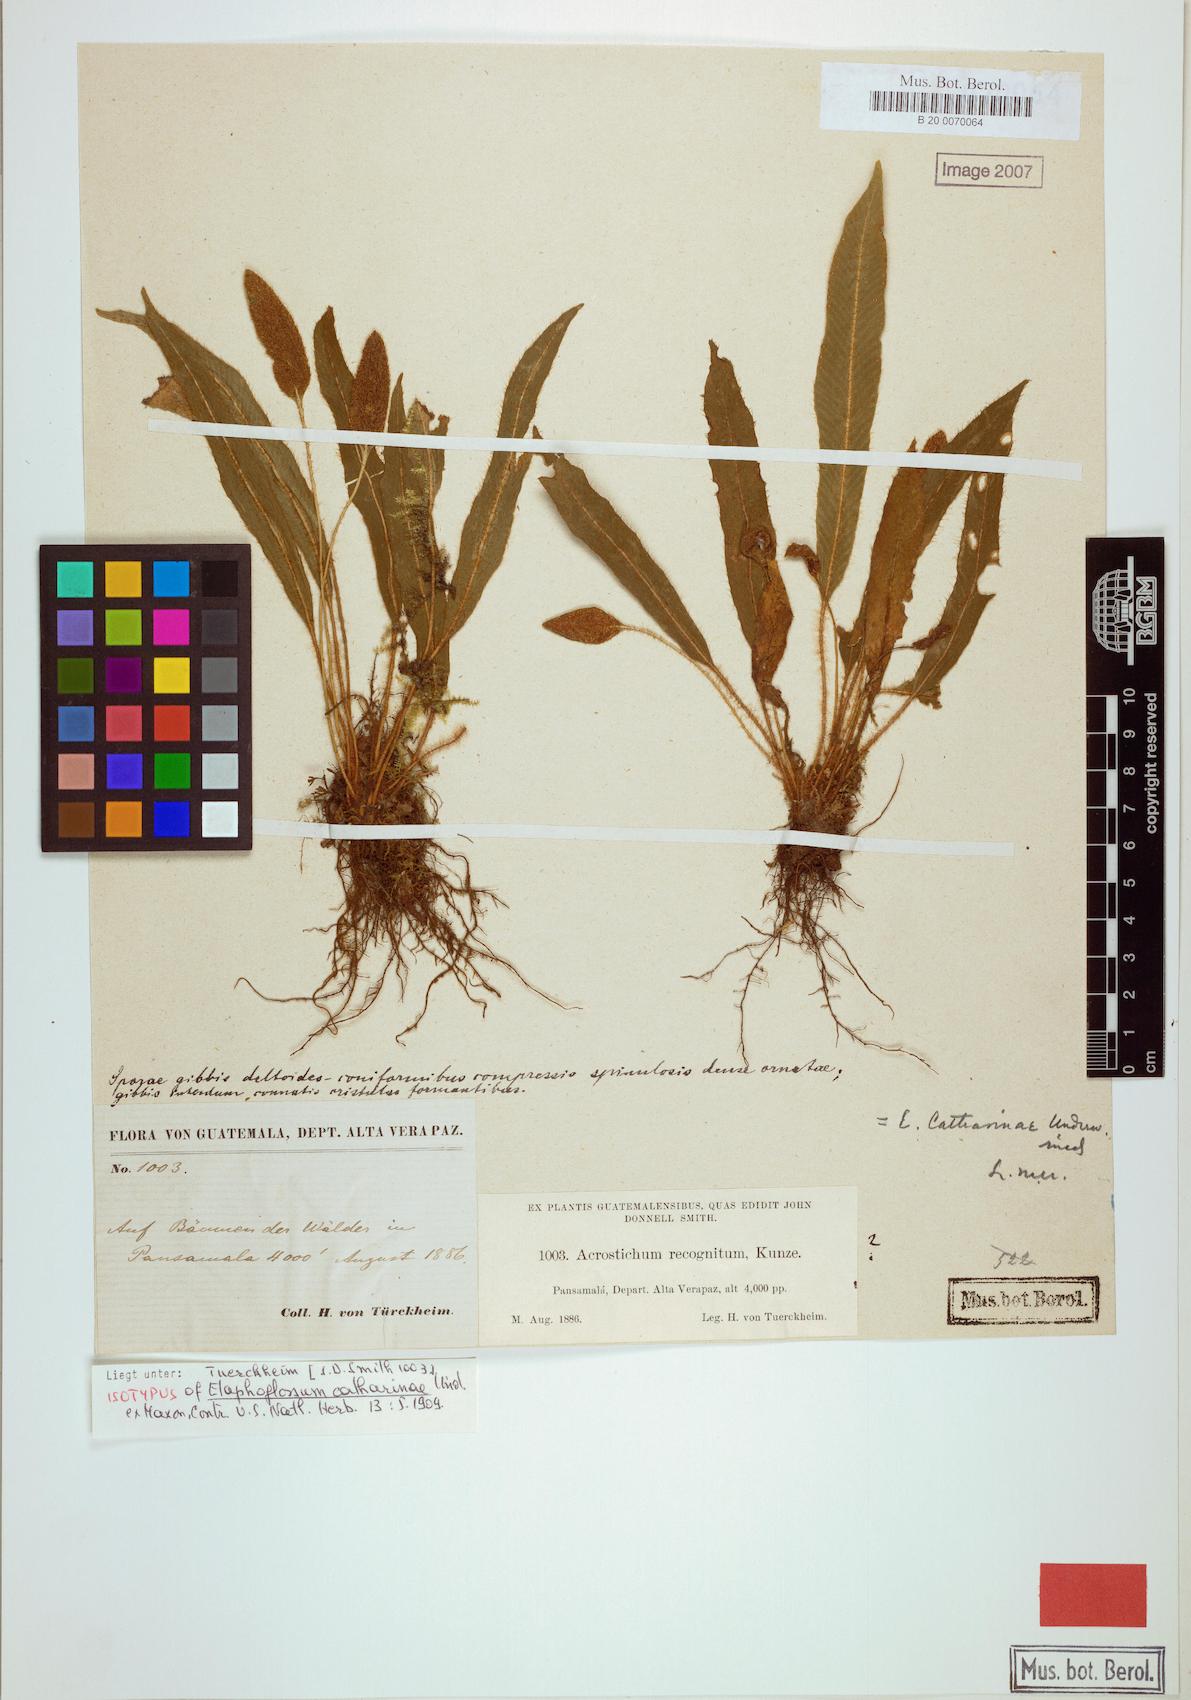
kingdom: Plantae
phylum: Tracheophyta
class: Polypodiopsida
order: Polypodiales
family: Dryopteridaceae
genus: Elaphoglossum
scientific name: Elaphoglossum setosum
